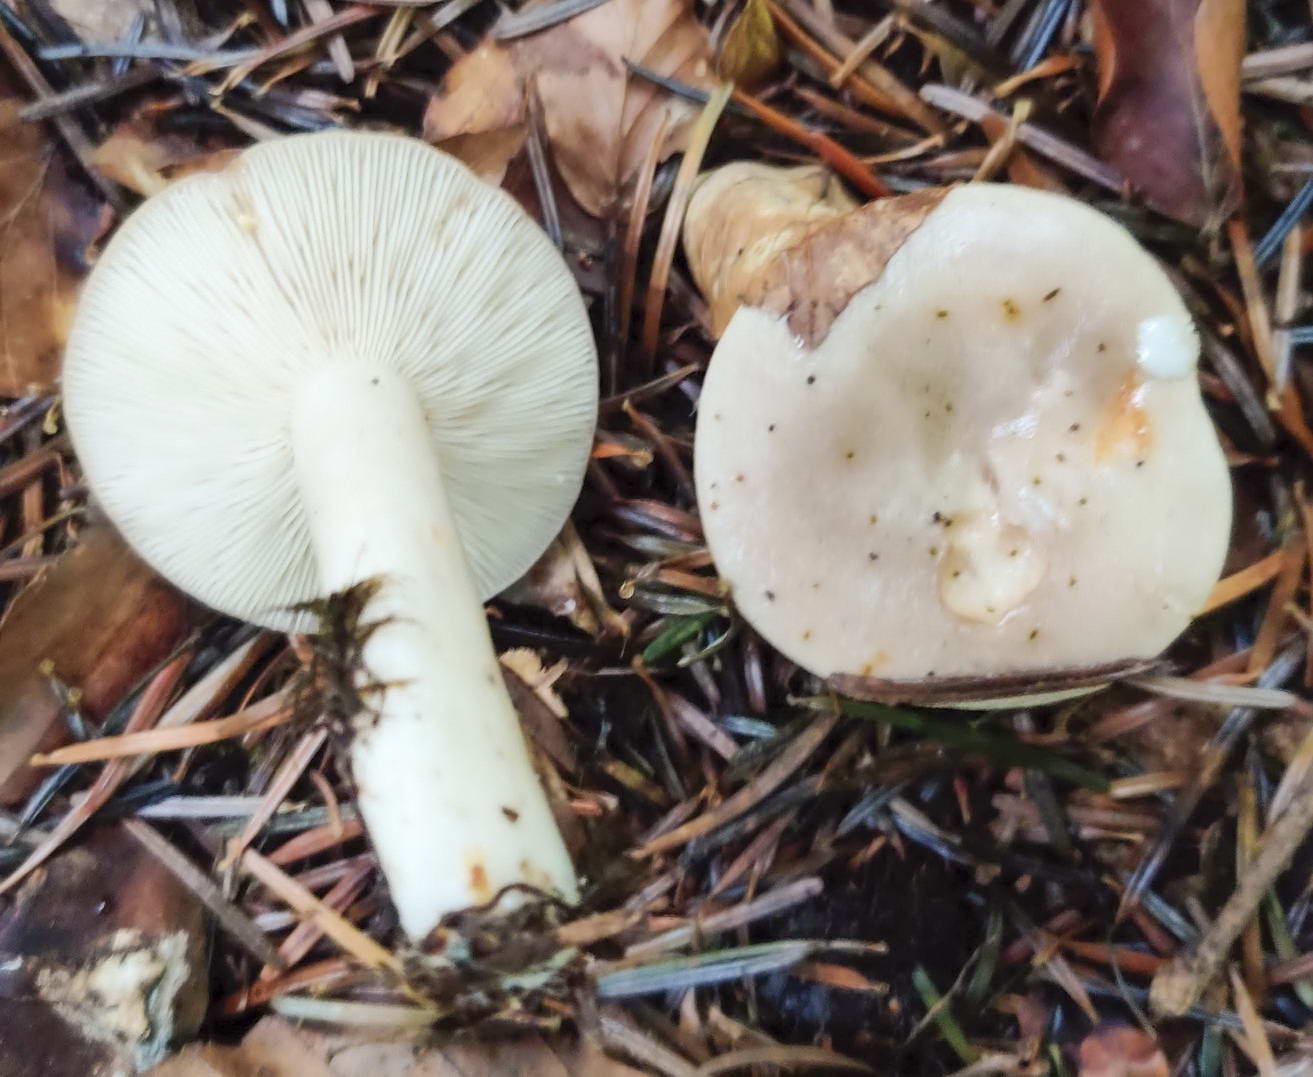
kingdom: Fungi
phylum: Basidiomycota
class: Agaricomycetes
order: Russulales
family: Russulaceae
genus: Lactarius
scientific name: Lactarius albocarneus
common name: ædelgran-mælkehat
